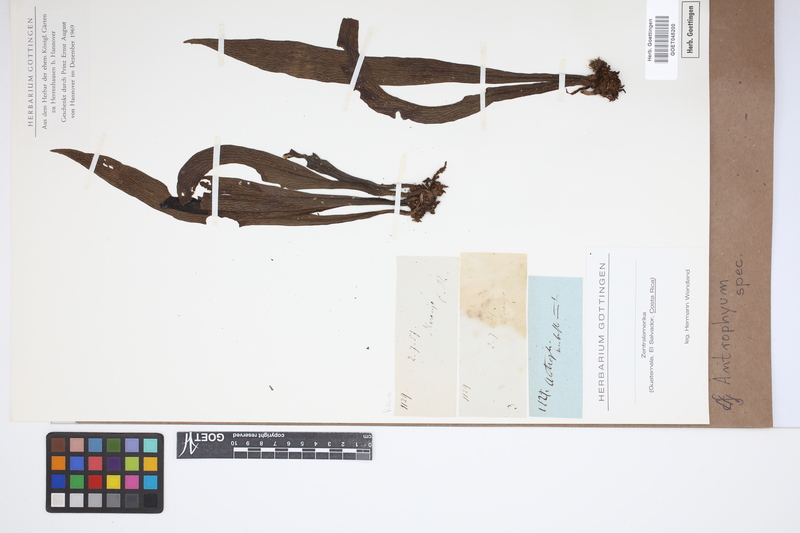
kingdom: Plantae
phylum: Tracheophyta
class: Polypodiopsida
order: Polypodiales
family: Pteridaceae
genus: Antrophyum
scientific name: Antrophyum
